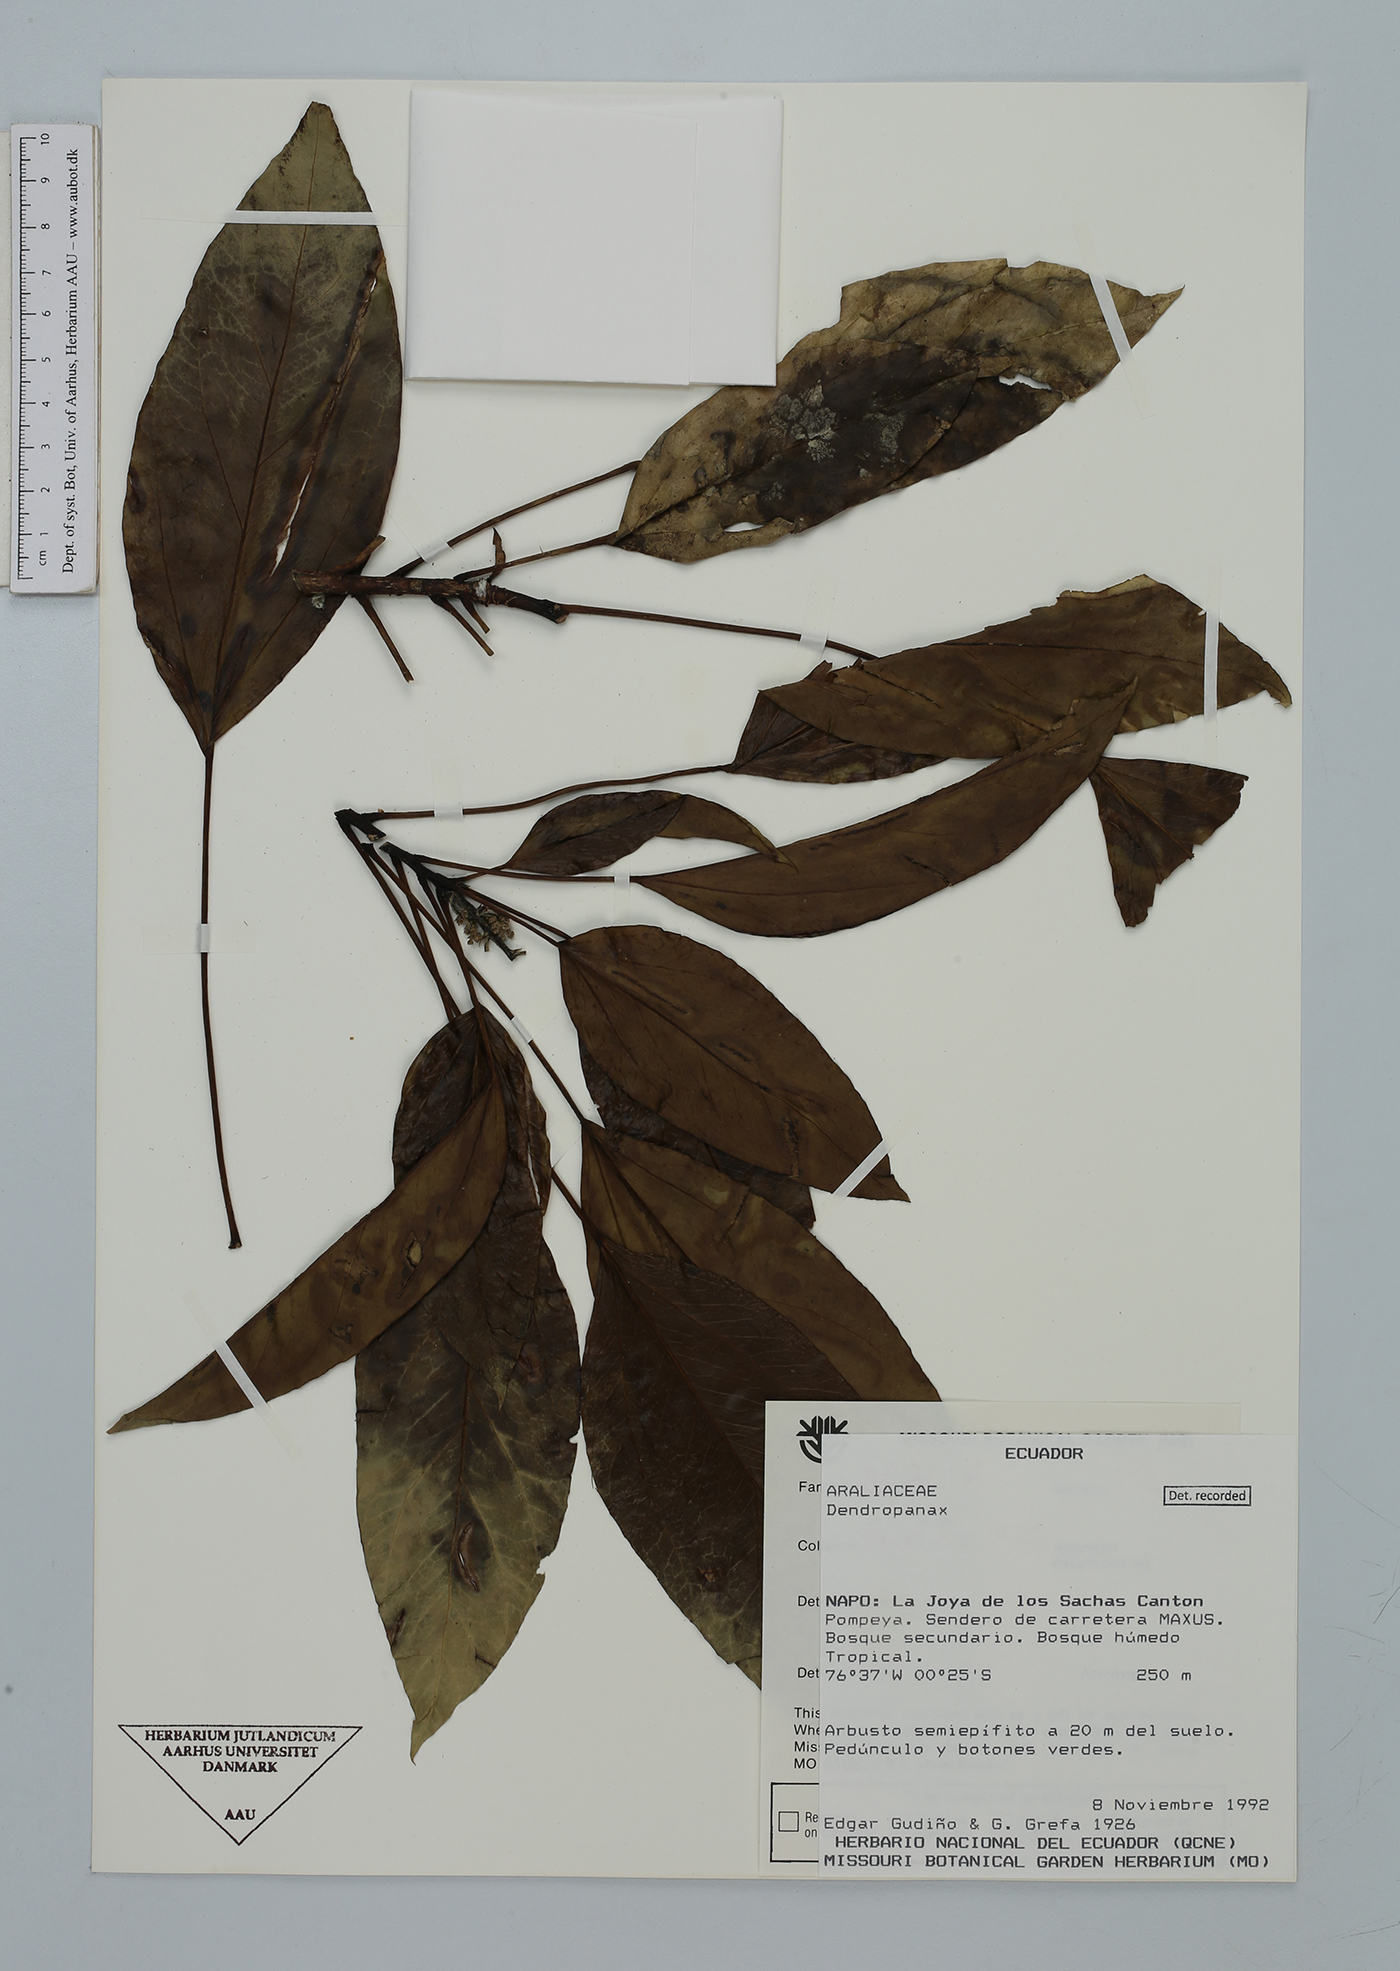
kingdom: Plantae
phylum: Tracheophyta
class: Magnoliopsida
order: Apiales
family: Araliaceae
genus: Dendropanax
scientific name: Dendropanax
